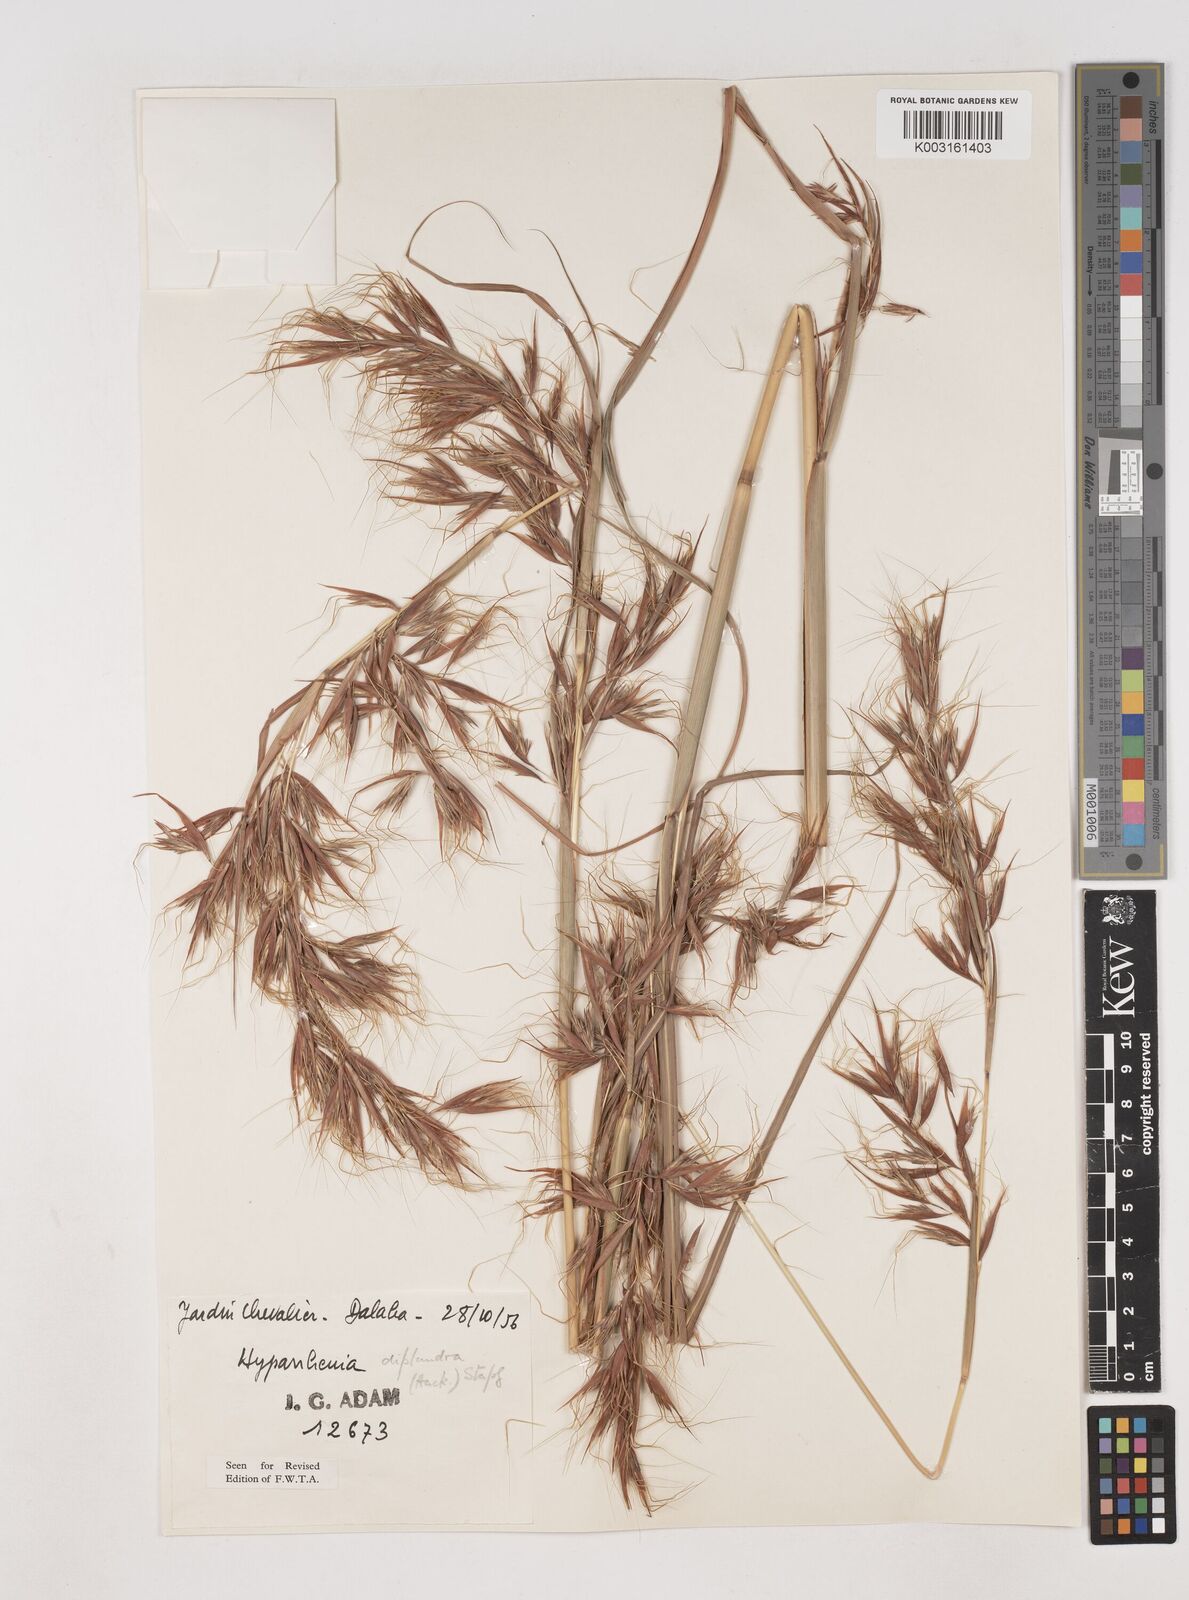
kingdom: Plantae
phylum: Tracheophyta
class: Liliopsida
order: Poales
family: Poaceae
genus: Hyparrhenia
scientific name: Hyparrhenia diplandra
